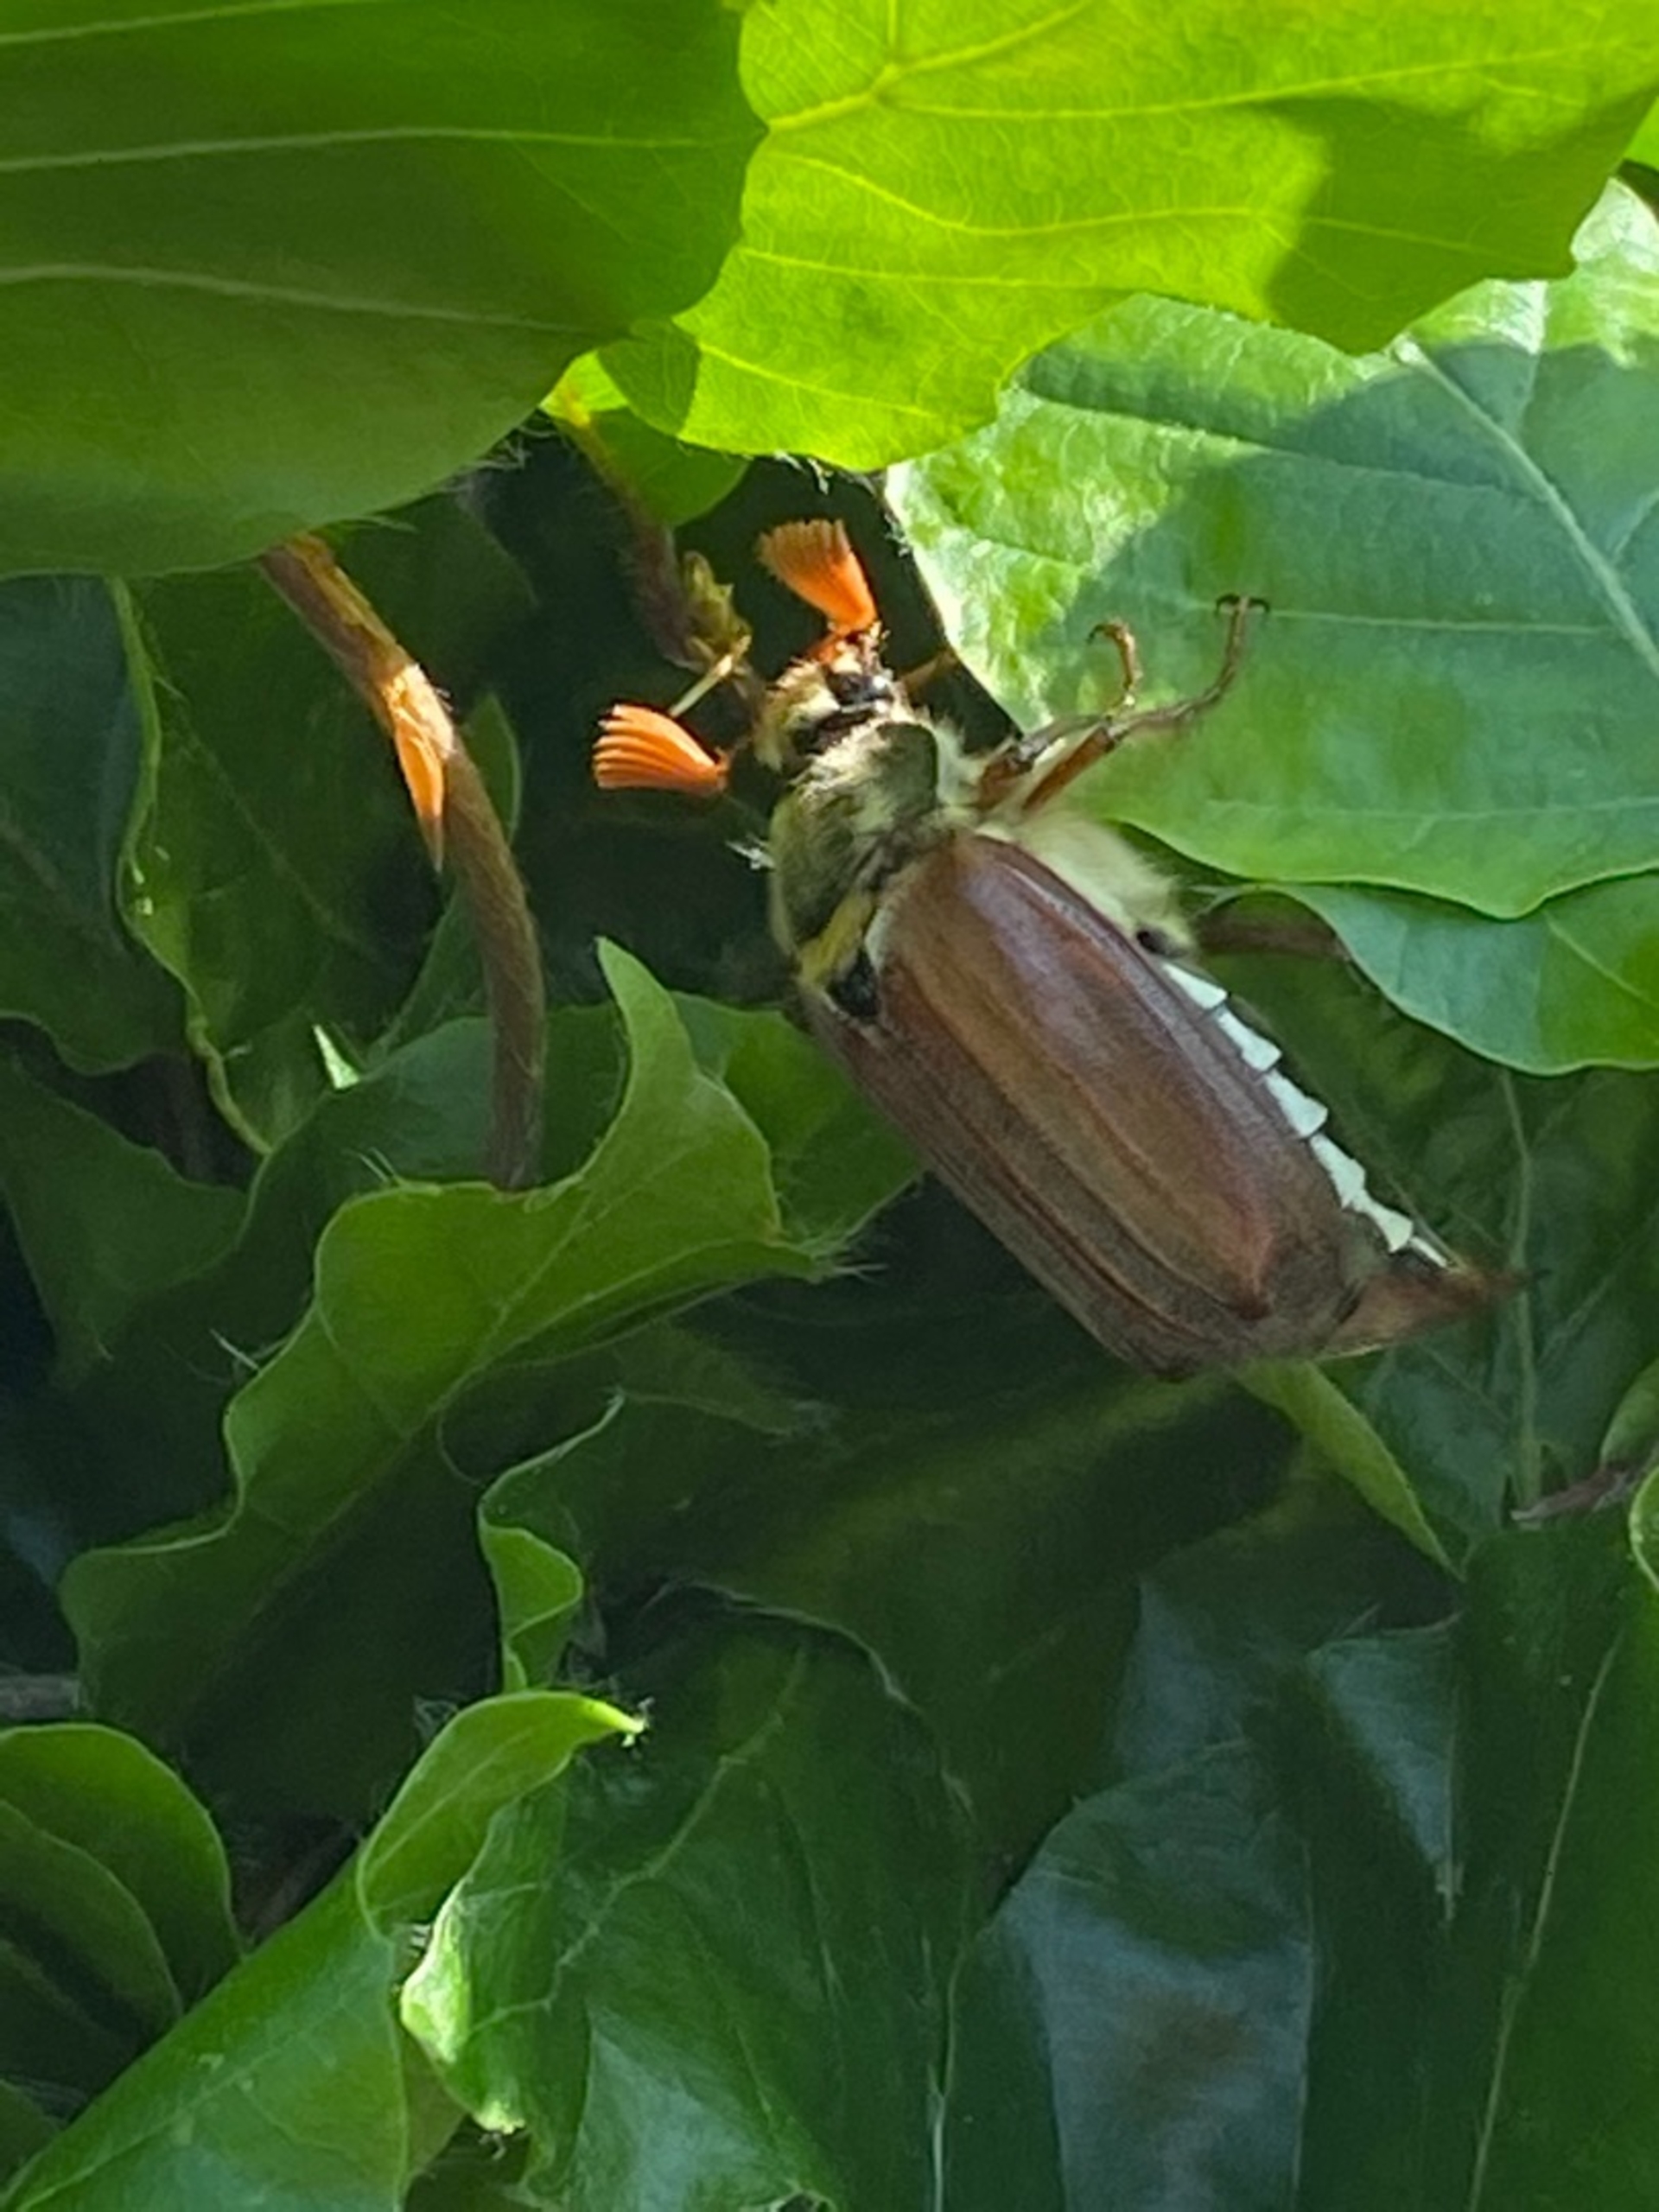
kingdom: Animalia
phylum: Arthropoda
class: Insecta
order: Coleoptera
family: Scarabaeidae
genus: Melolontha
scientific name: Melolontha melolontha
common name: Almindelig oldenborre
